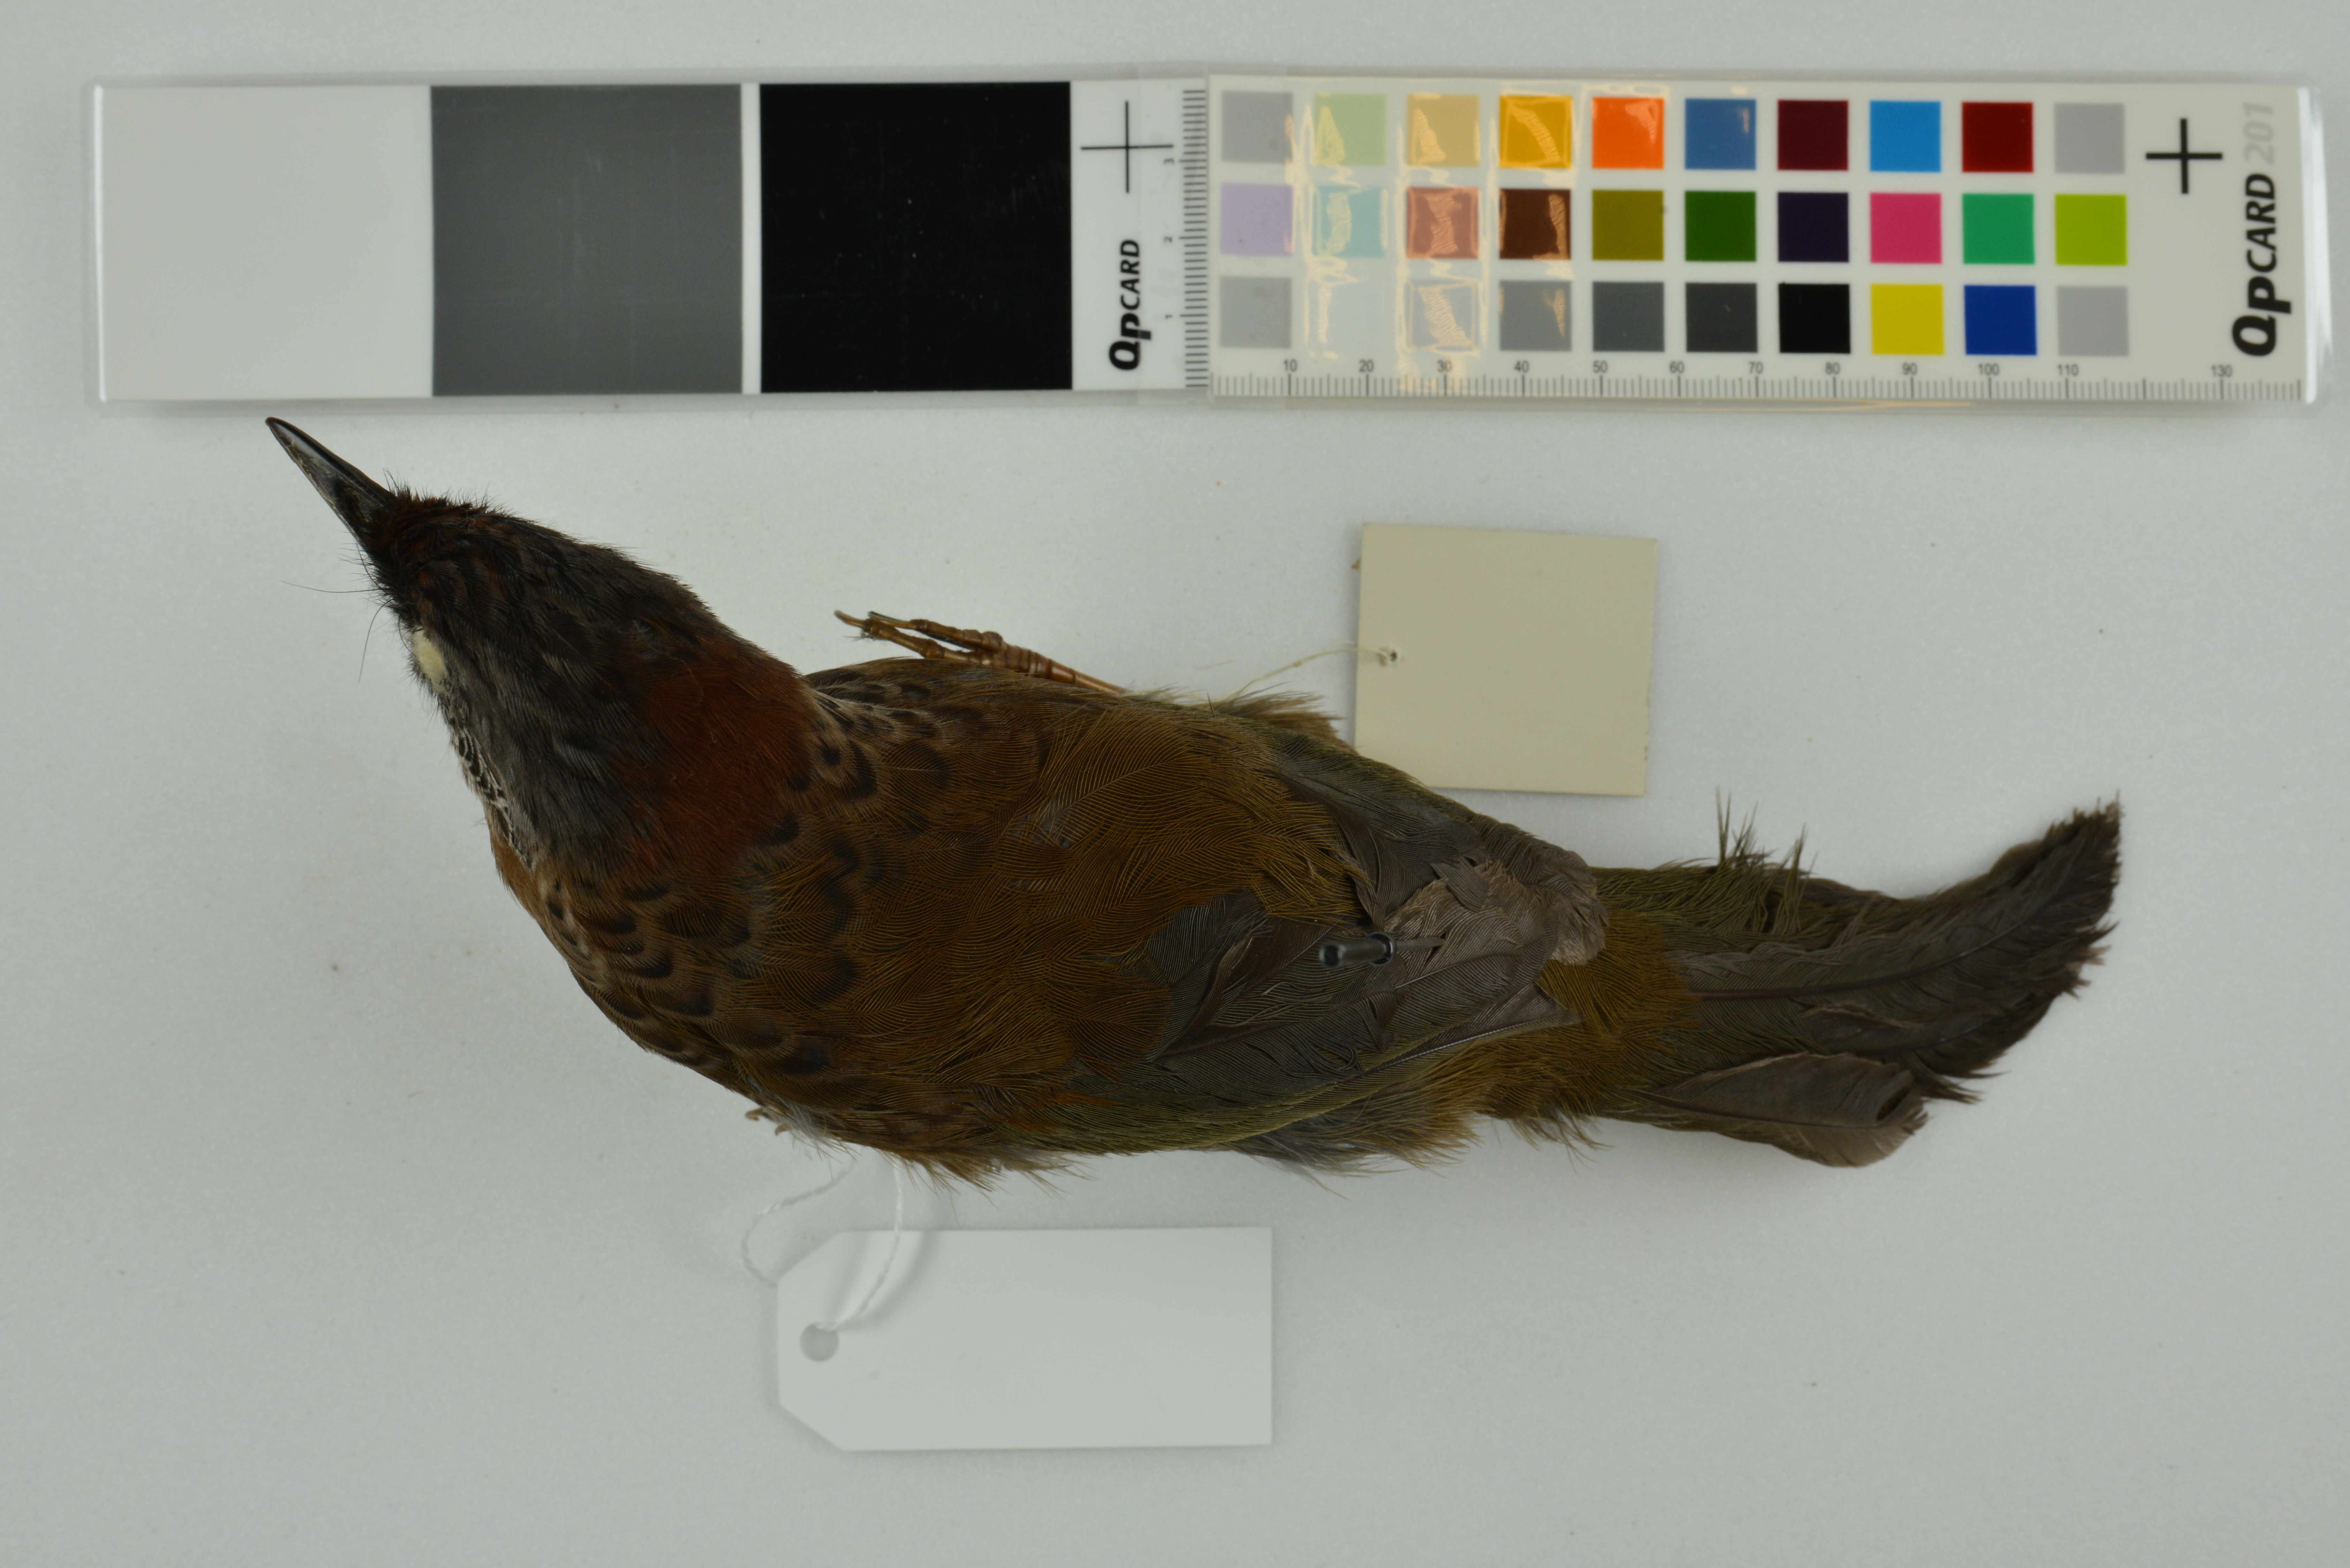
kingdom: Animalia
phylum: Chordata
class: Aves
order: Passeriformes
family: Leiothrichidae
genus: Trochalopteron
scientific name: Trochalopteron chrysopterum
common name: Assam laughingthrush
